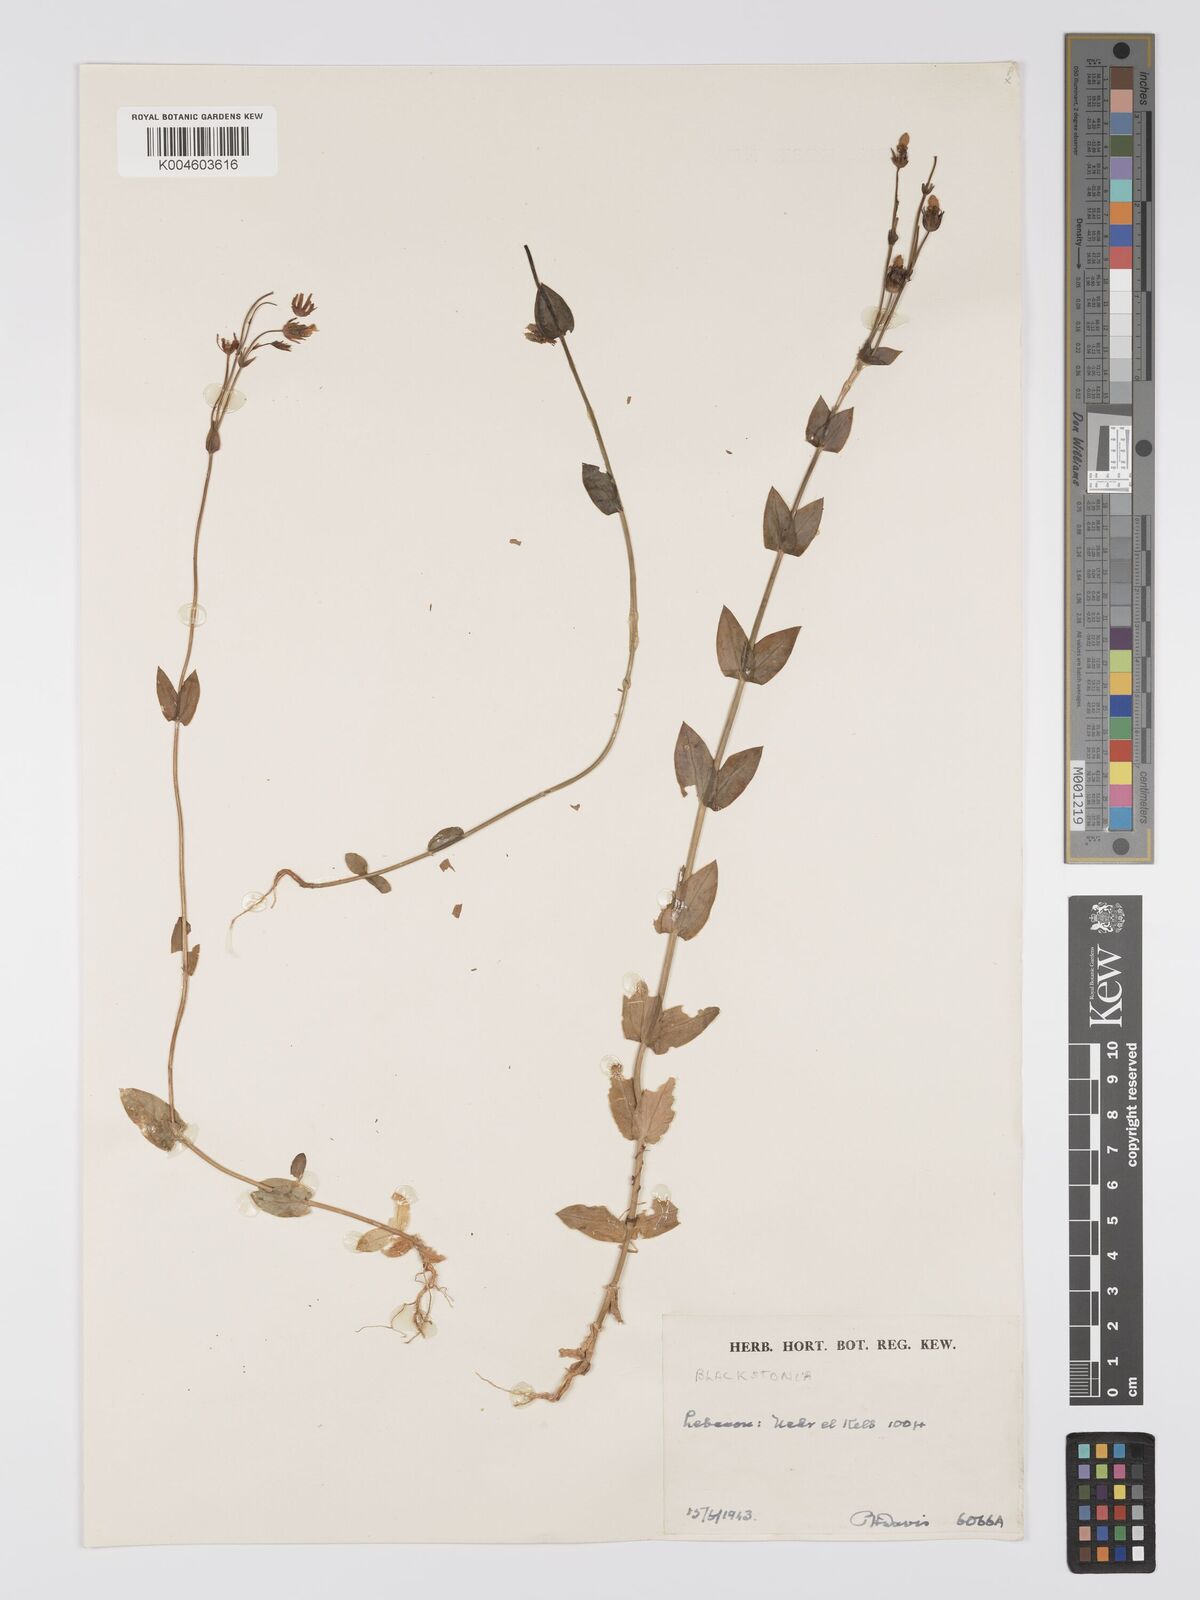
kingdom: Plantae
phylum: Tracheophyta
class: Magnoliopsida
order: Gentianales
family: Gentianaceae
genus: Blackstonia
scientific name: Blackstonia acuminata
